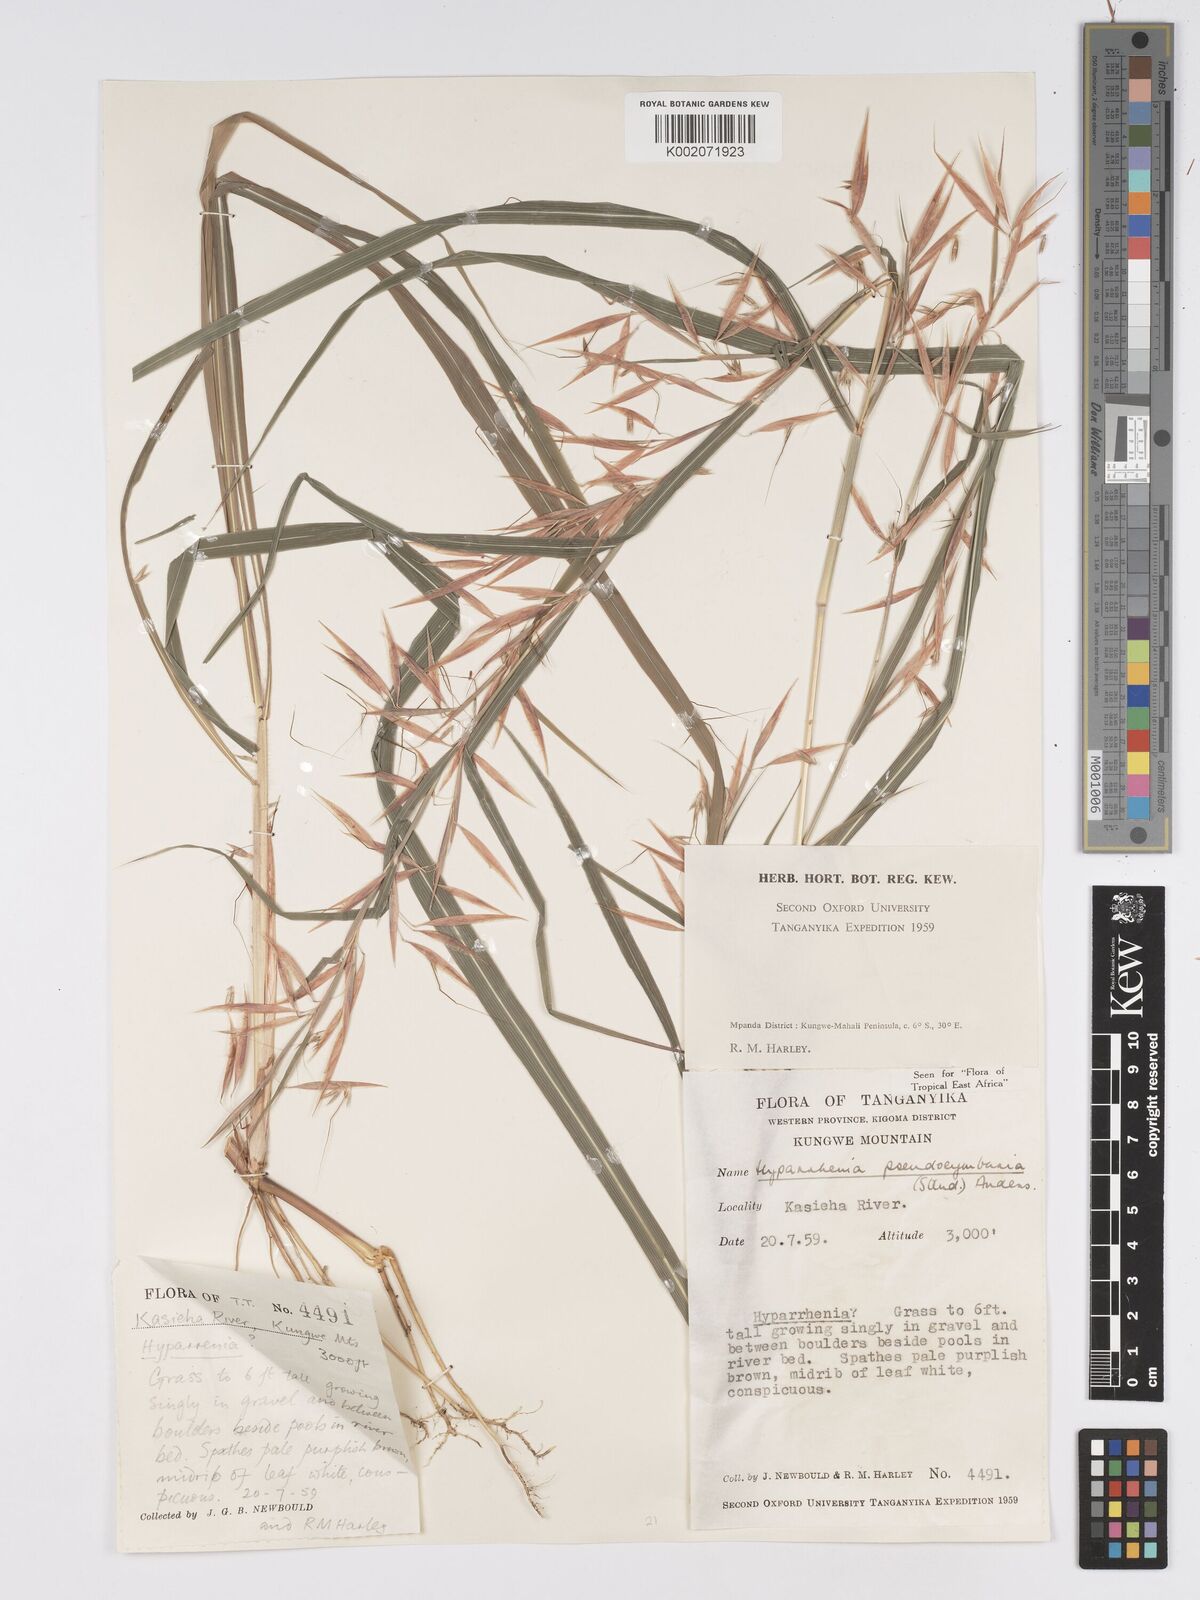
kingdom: Plantae
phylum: Tracheophyta
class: Liliopsida
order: Poales
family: Poaceae
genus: Hyparrhenia
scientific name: Hyparrhenia anthistirioides
